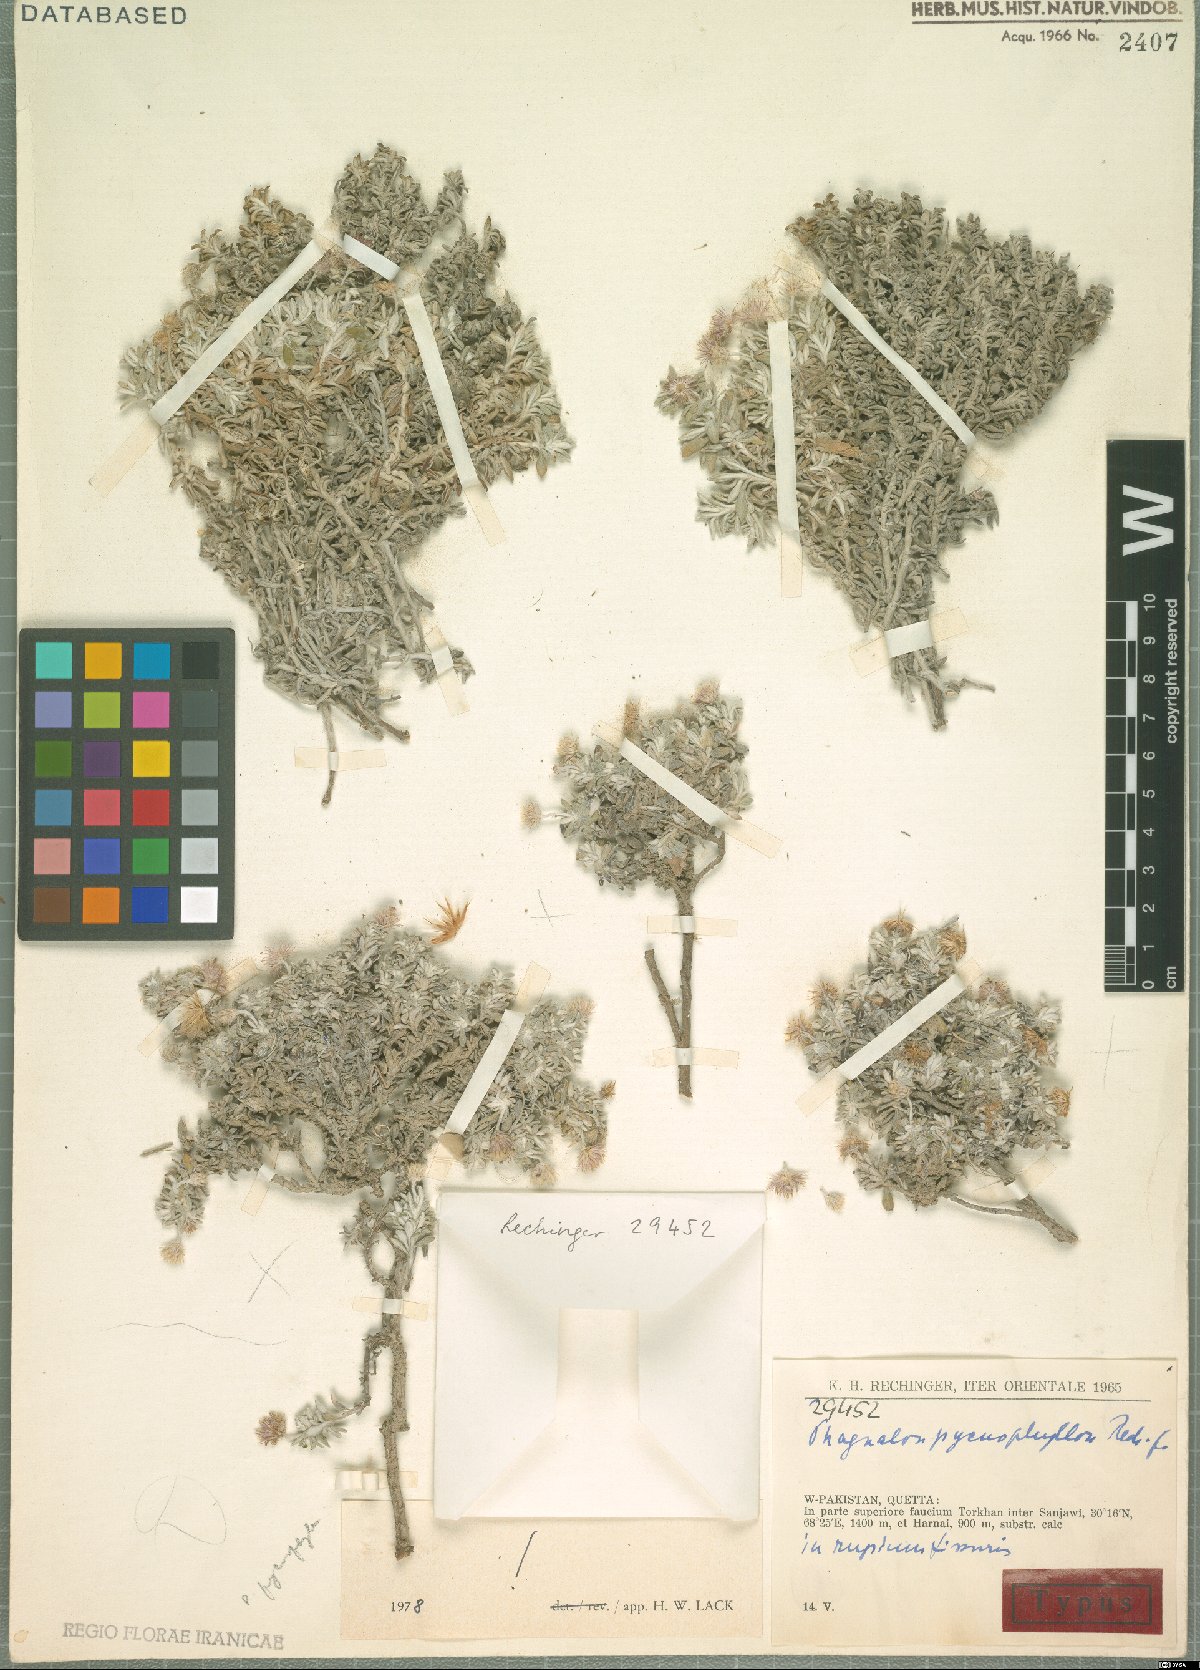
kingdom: Plantae
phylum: Tracheophyta
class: Magnoliopsida
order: Asterales
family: Asteraceae
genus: Phagnalon
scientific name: Phagnalon pycnophyllon
